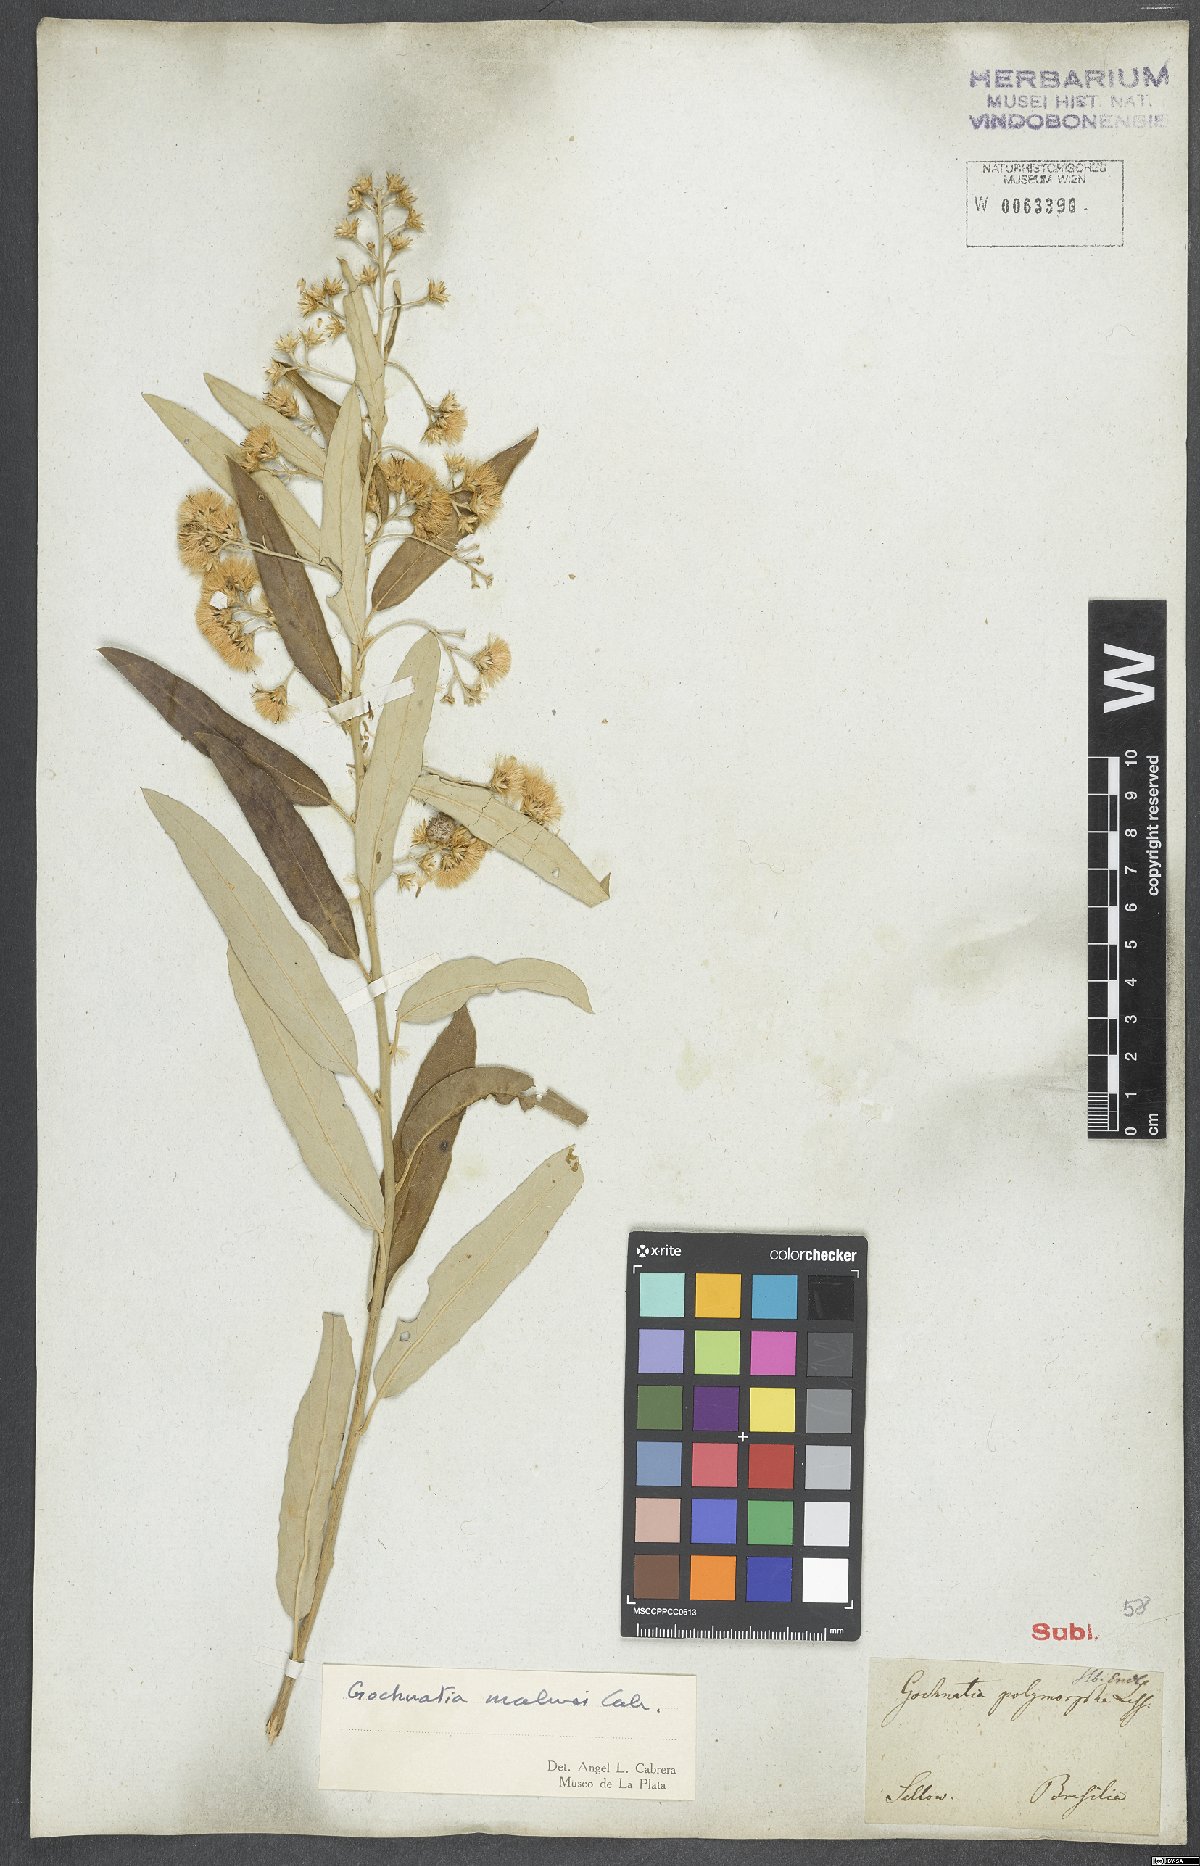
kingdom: Plantae
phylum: Tracheophyta
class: Magnoliopsida
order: Asterales
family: Asteraceae
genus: Moquiniastrum
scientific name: Moquiniastrum polymorphum
